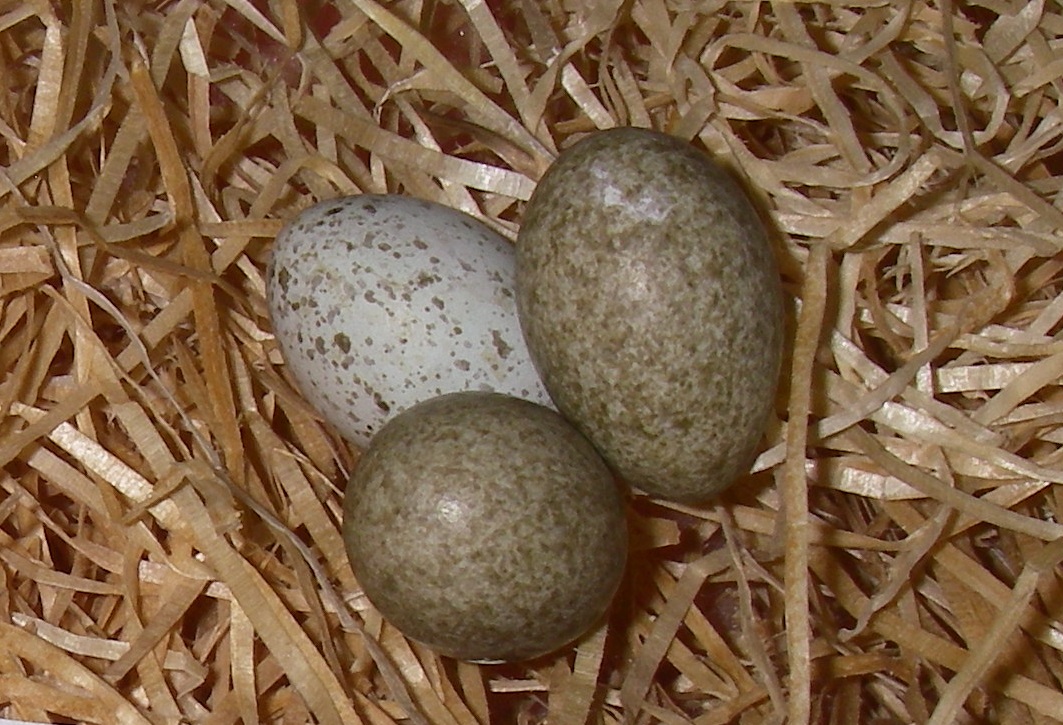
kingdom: Animalia
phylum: Chordata
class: Aves
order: Passeriformes
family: Corvidae
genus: Pica
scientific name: Pica pica
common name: Eurasian magpie
